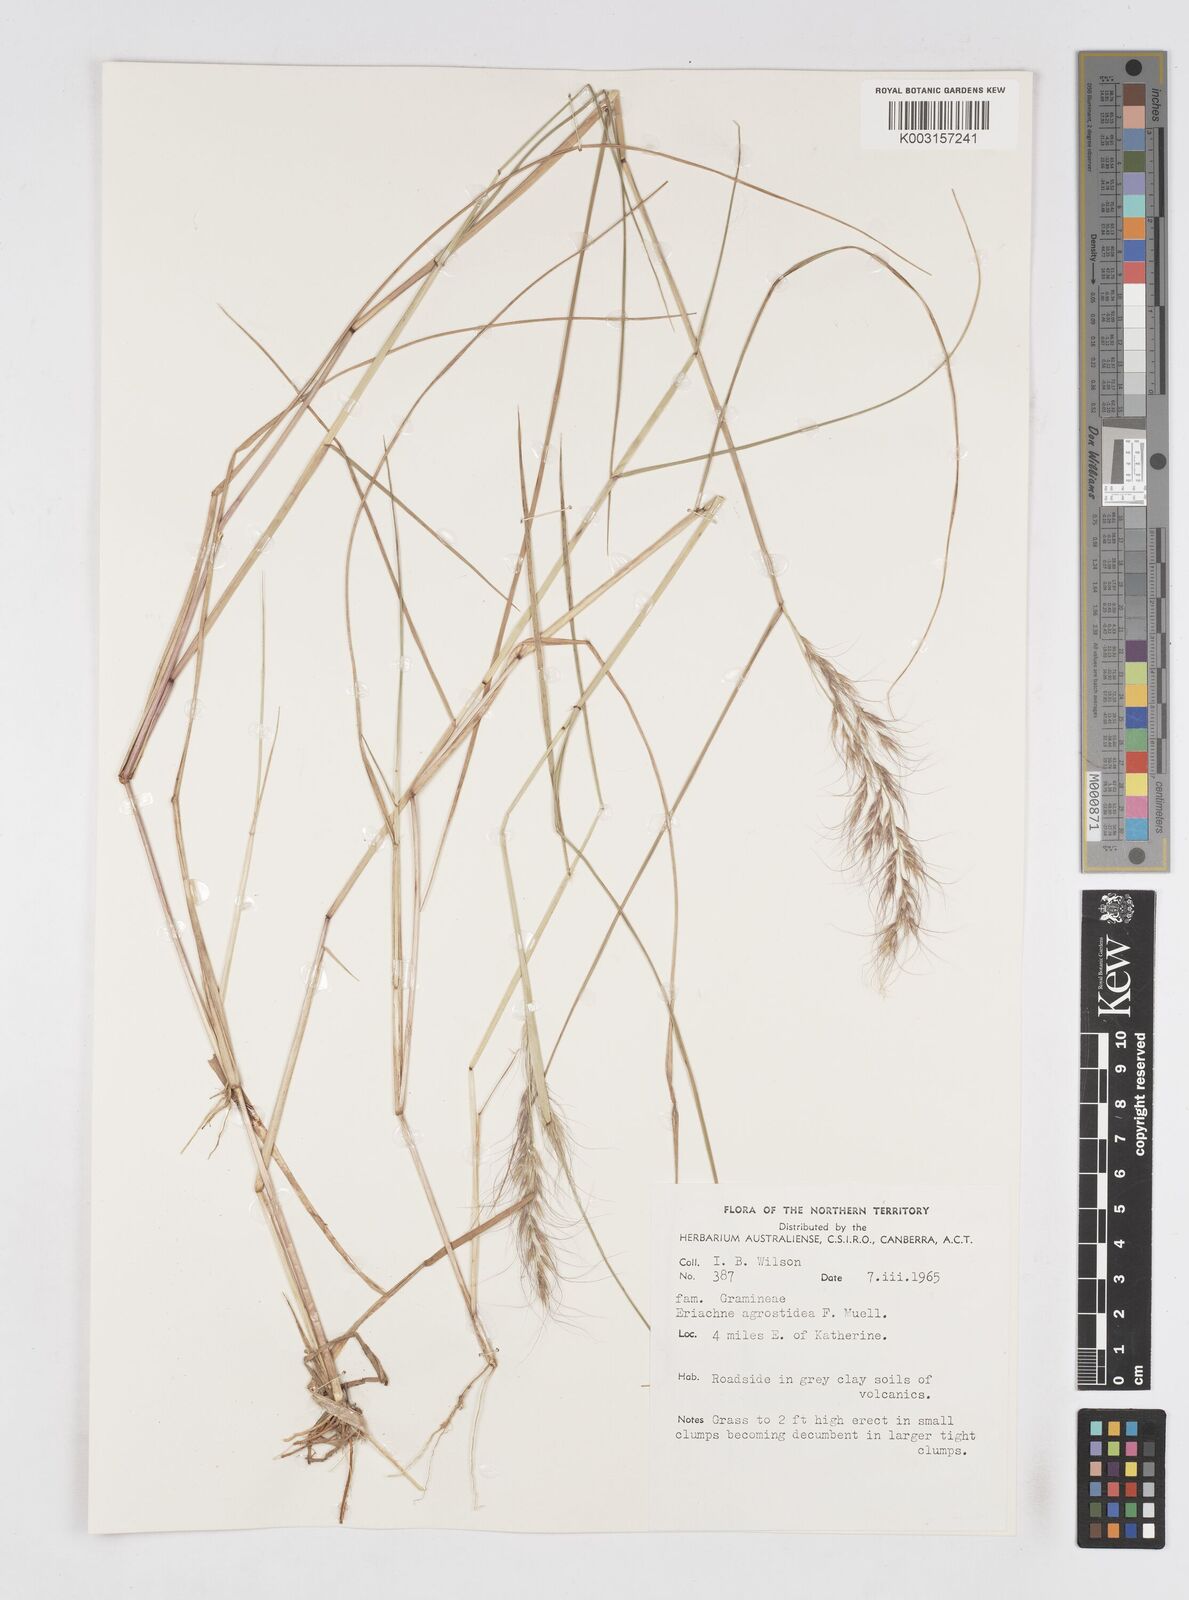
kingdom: Plantae
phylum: Tracheophyta
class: Liliopsida
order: Poales
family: Poaceae
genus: Eriachne
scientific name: Eriachne agrostidea
